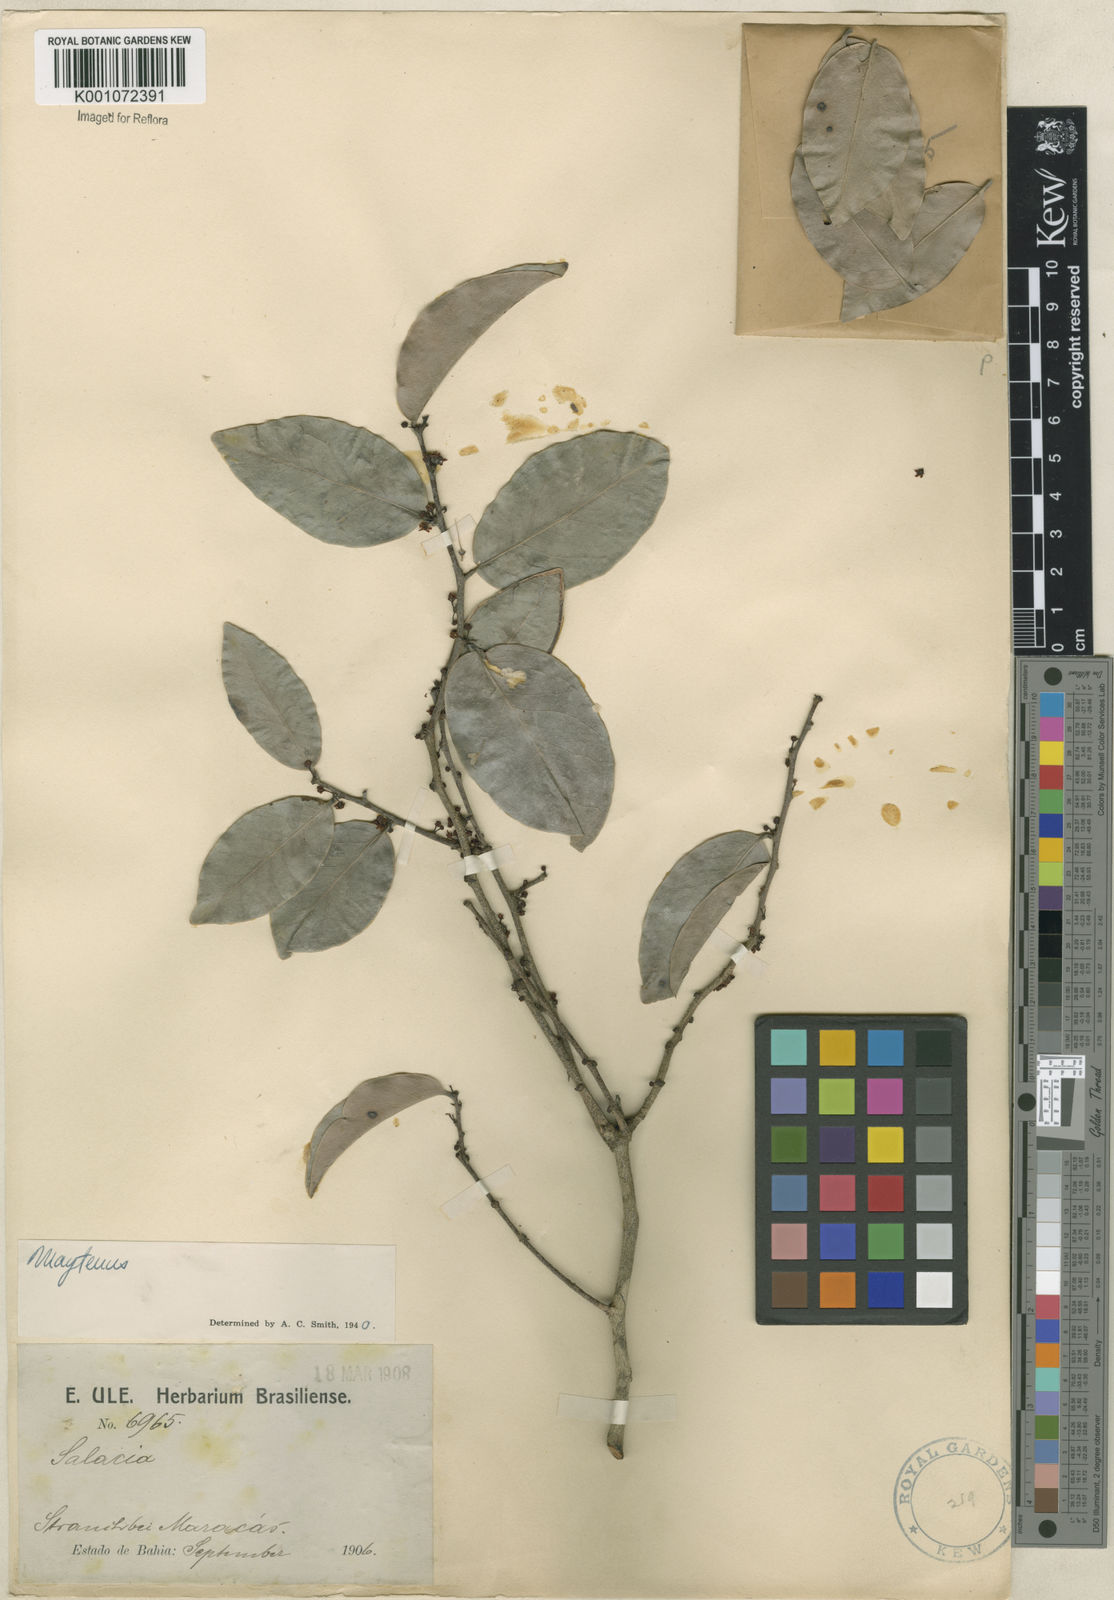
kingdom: Plantae
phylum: Tracheophyta
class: Magnoliopsida
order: Celastrales
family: Celastraceae
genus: Maytenus
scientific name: Maytenus
